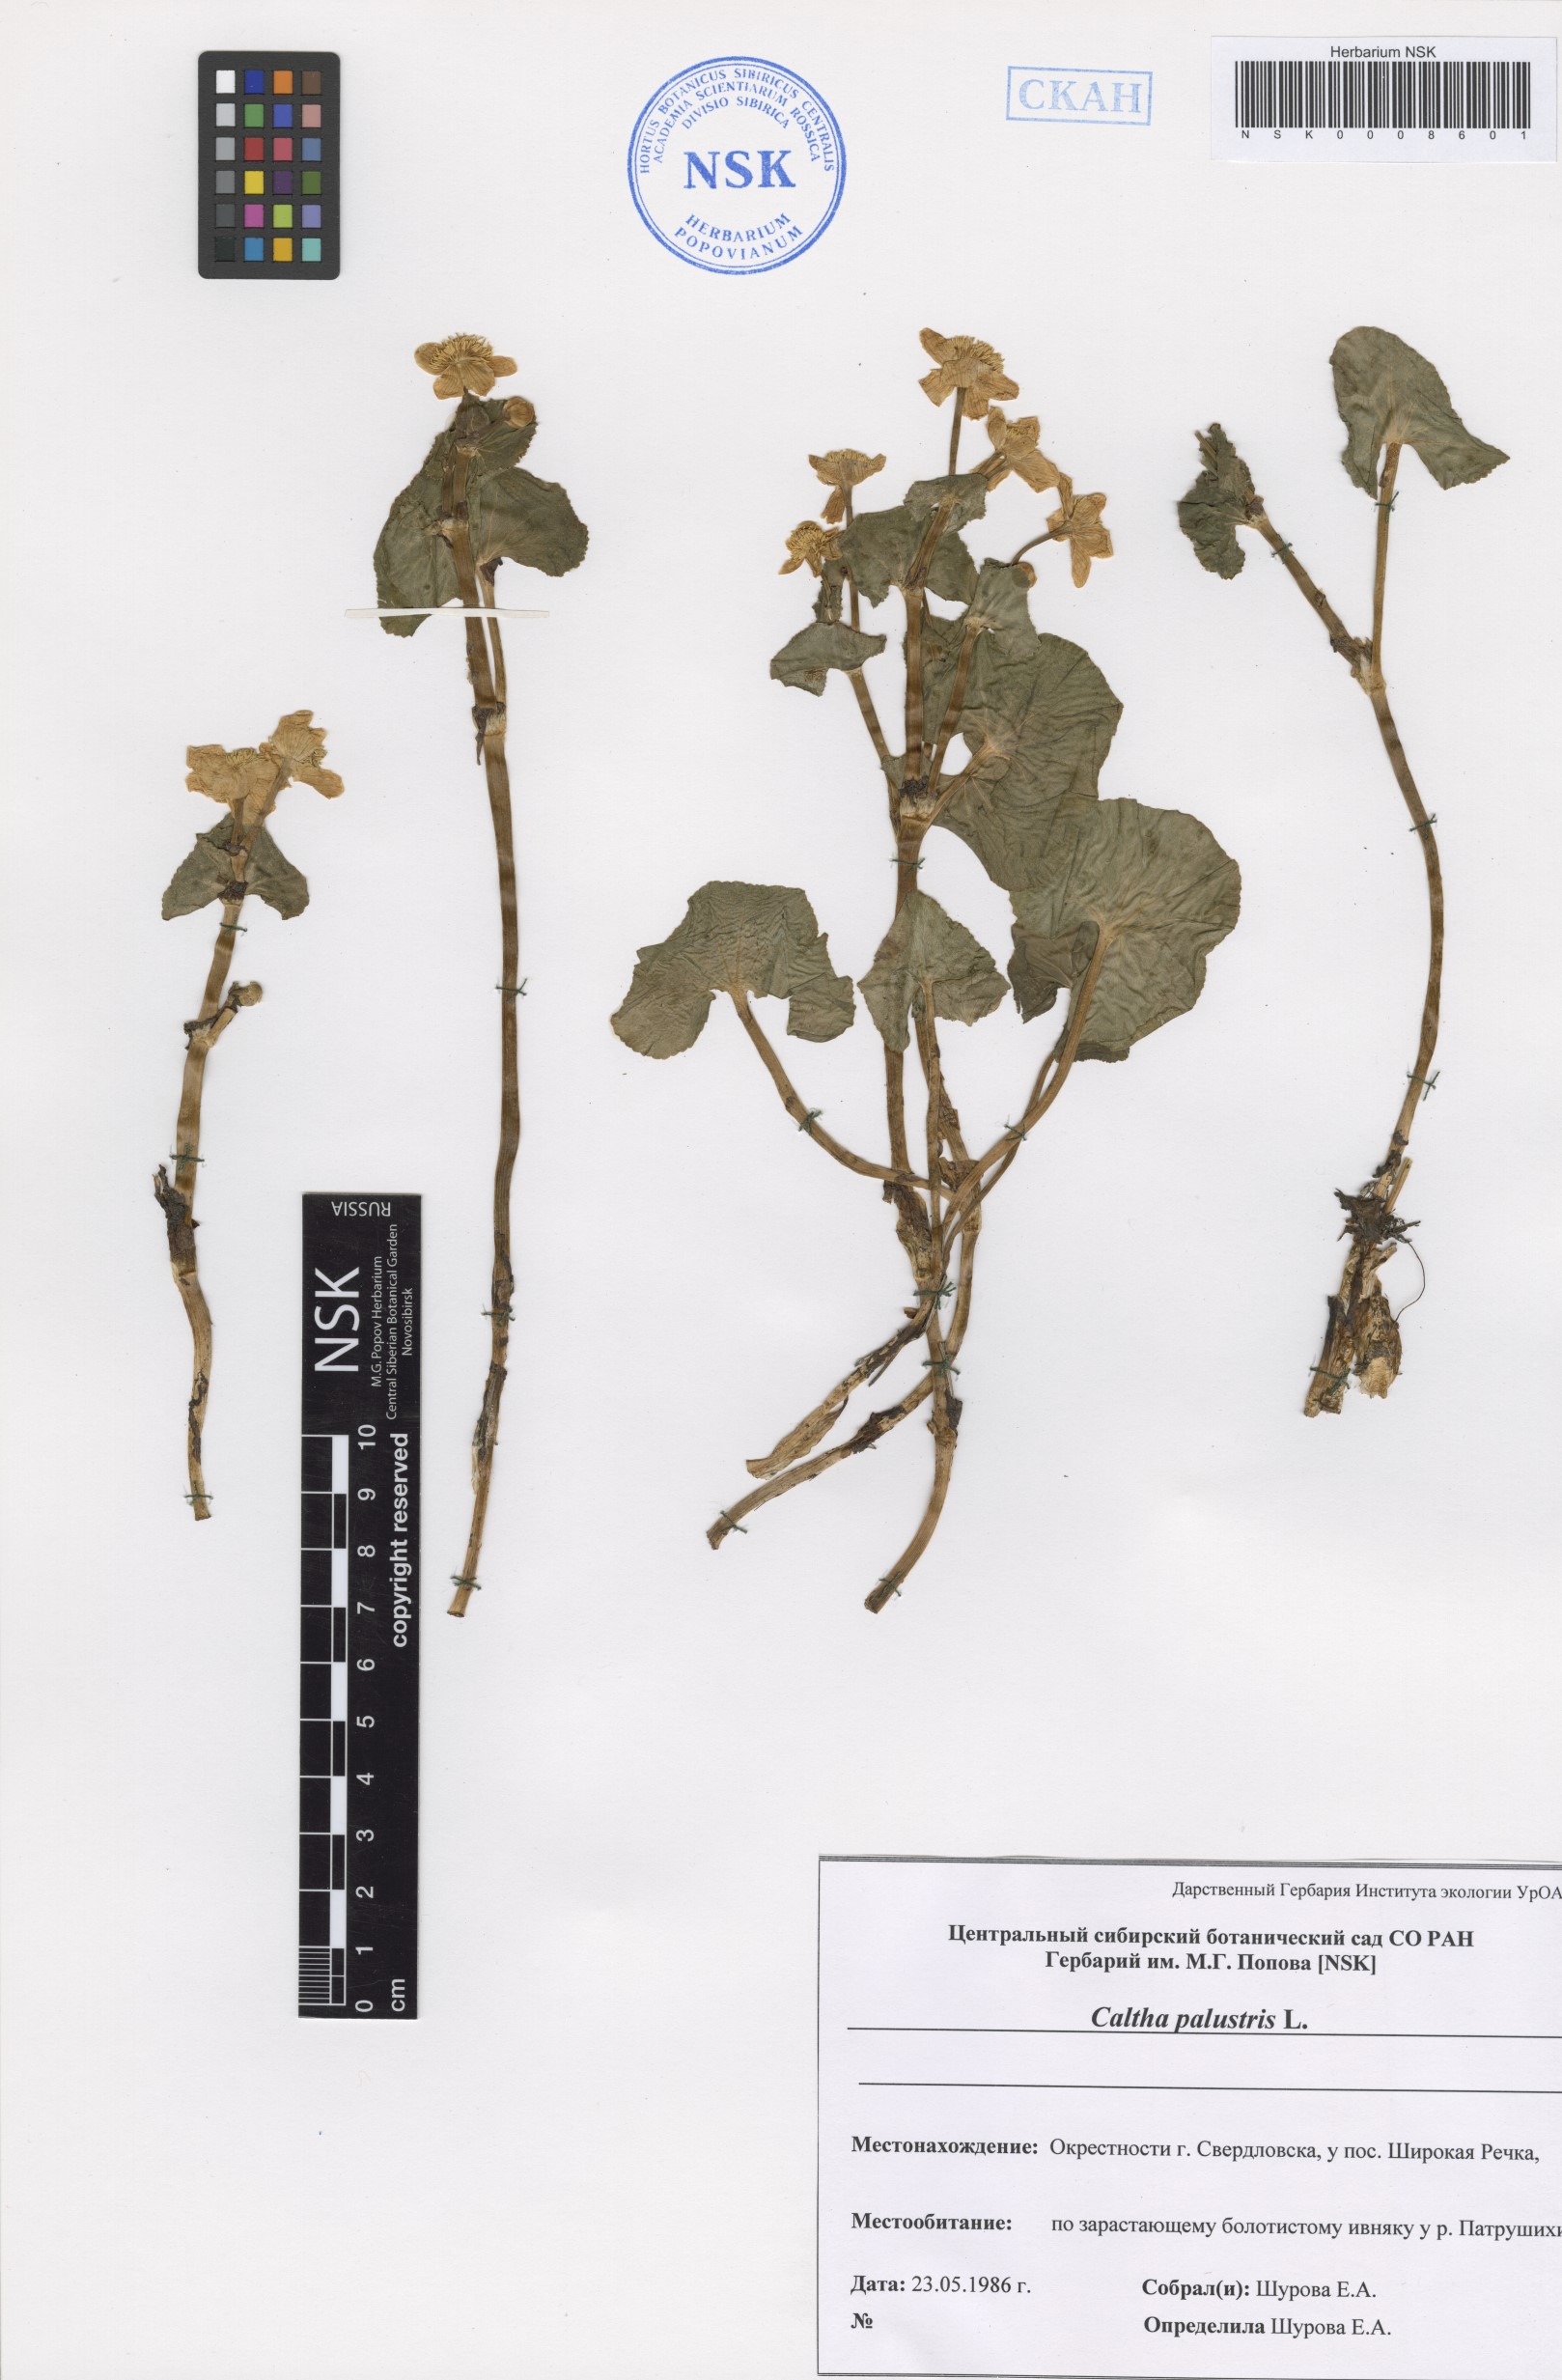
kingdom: Plantae
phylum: Tracheophyta
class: Magnoliopsida
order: Ranunculales
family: Ranunculaceae
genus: Caltha
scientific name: Caltha palustris
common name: Marsh marigold
